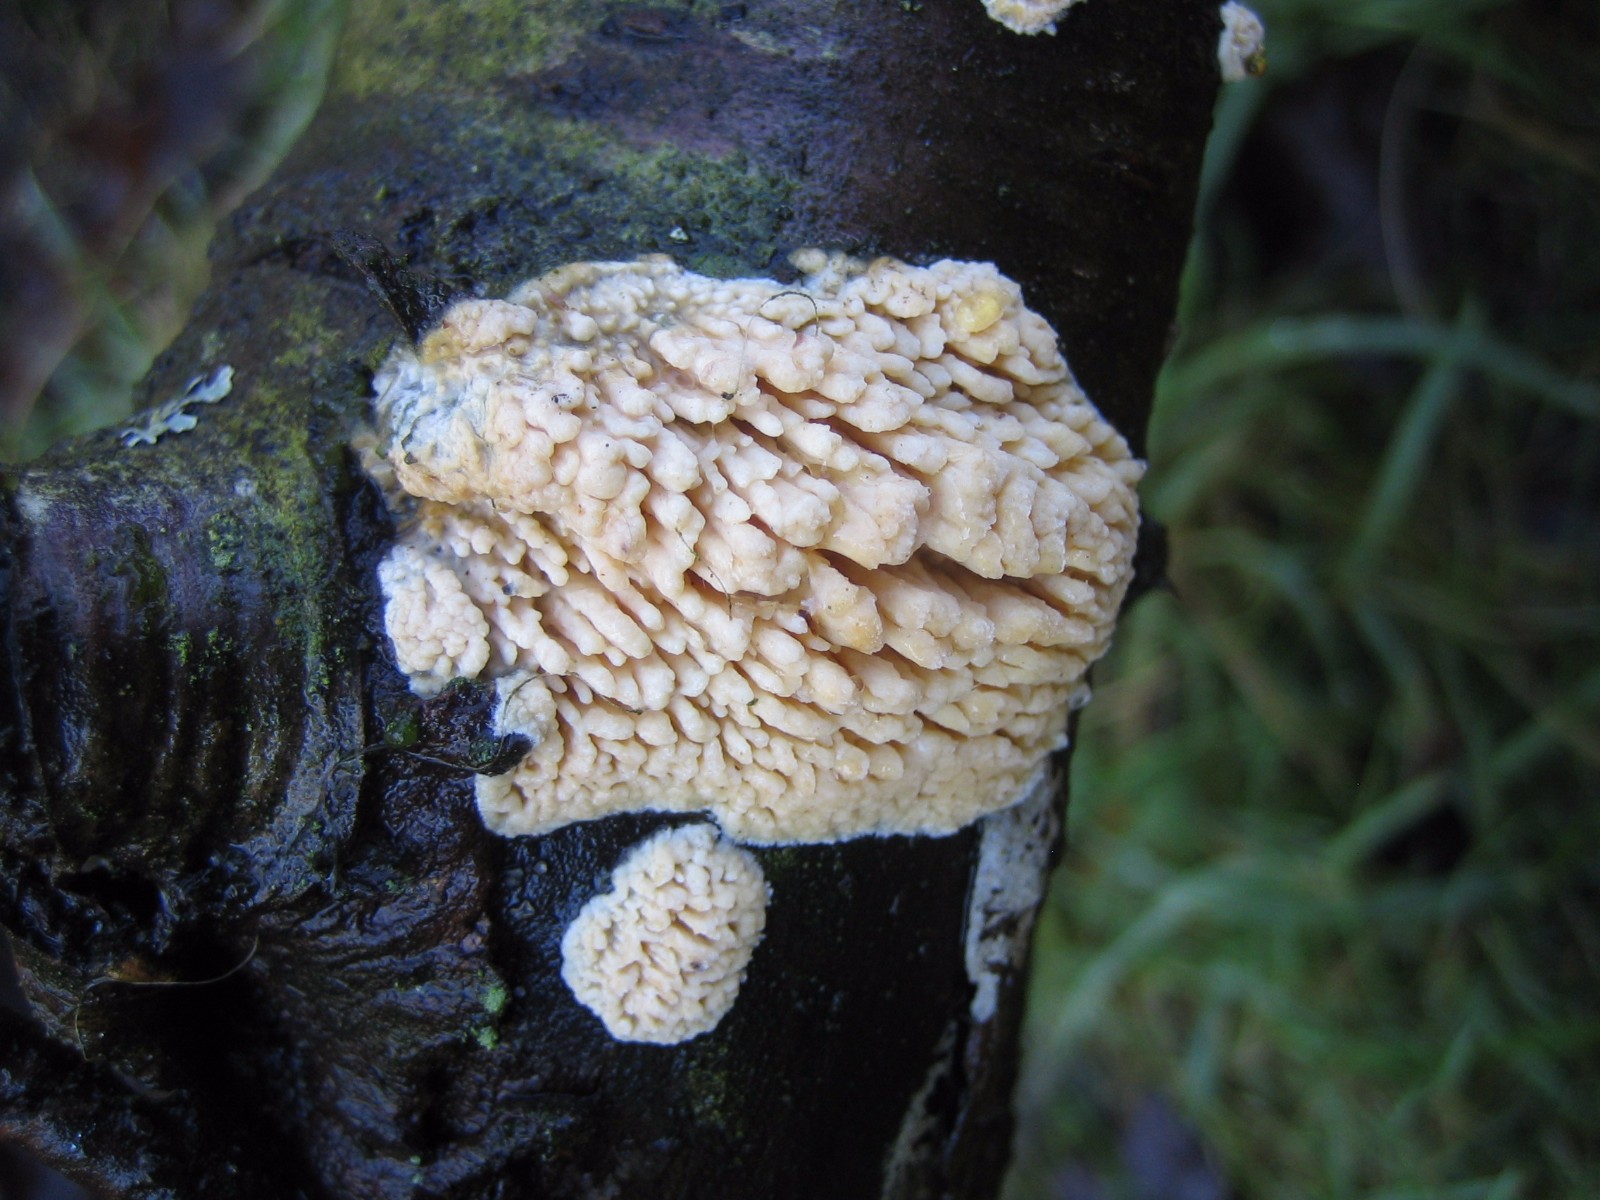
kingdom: Fungi
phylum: Basidiomycota
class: Agaricomycetes
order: Hymenochaetales
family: Schizoporaceae
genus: Xylodon
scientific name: Xylodon radula
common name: grovtandet kalkskind
